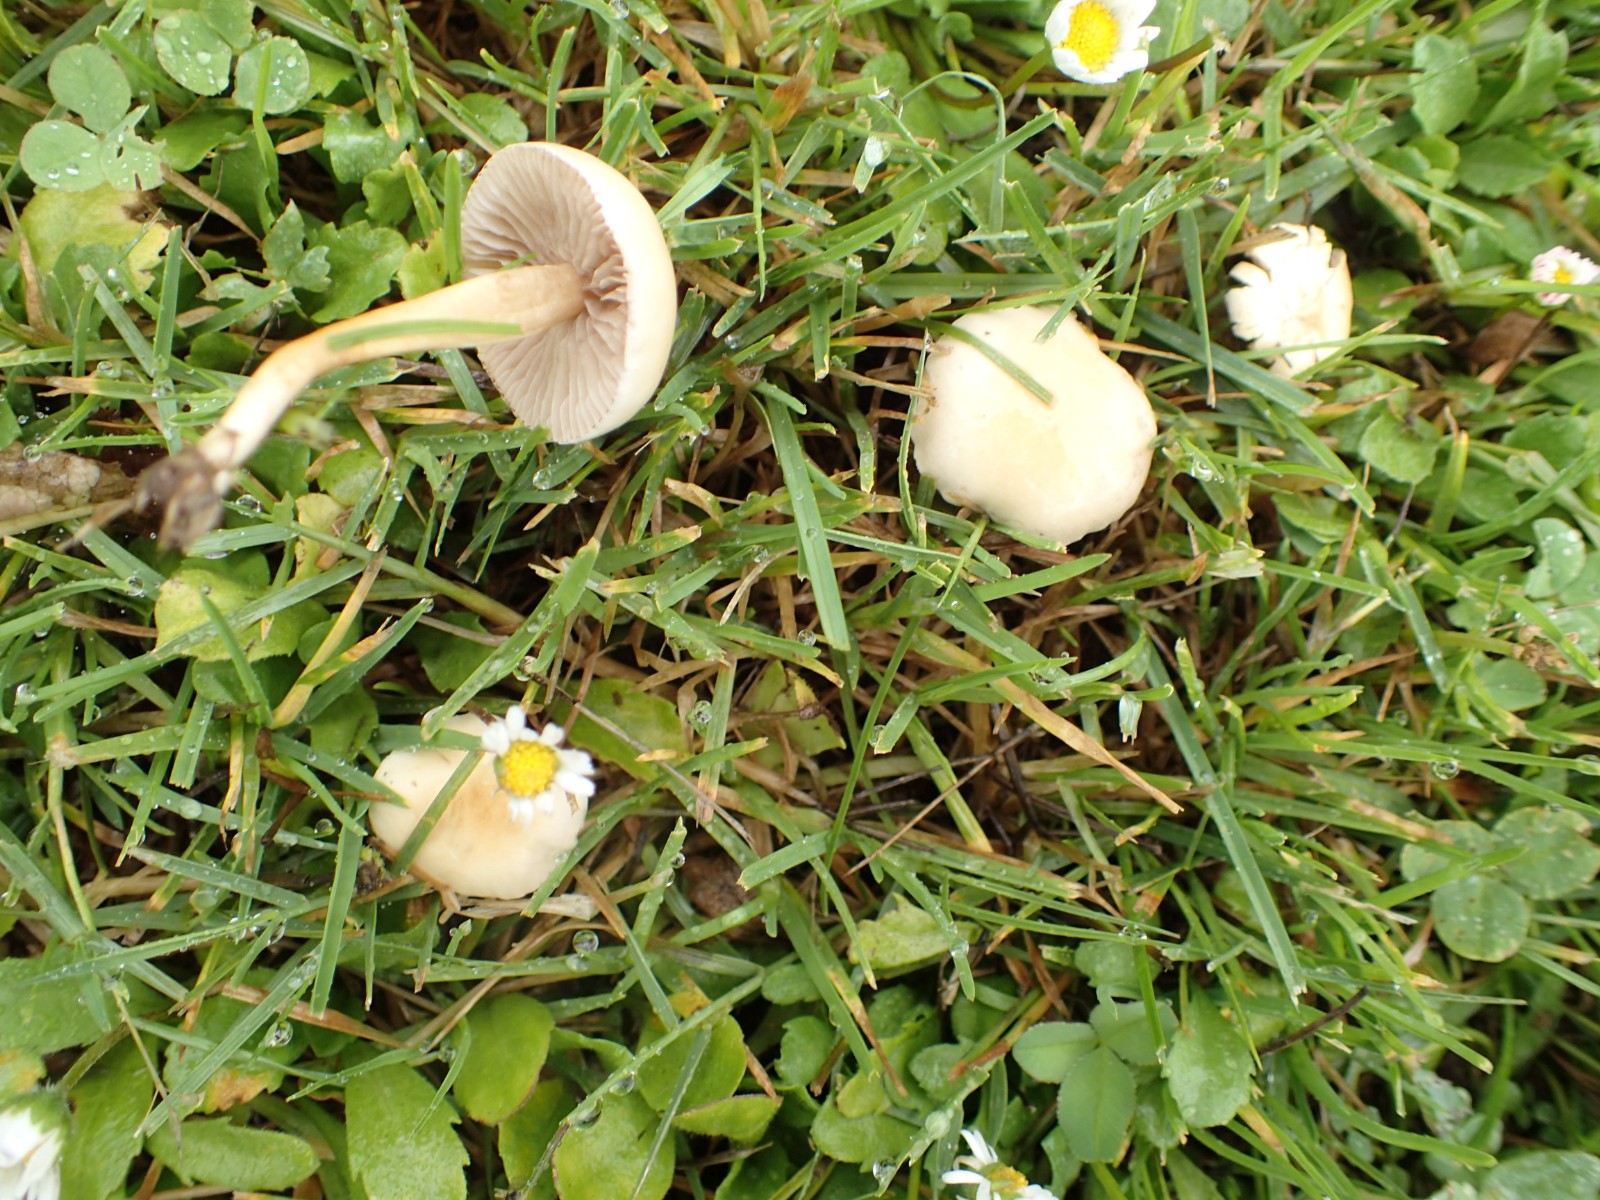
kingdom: Fungi
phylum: Basidiomycota
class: Agaricomycetes
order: Agaricales
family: Marasmiaceae
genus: Marasmius
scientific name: Marasmius oreades
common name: elledans-bruskhat
